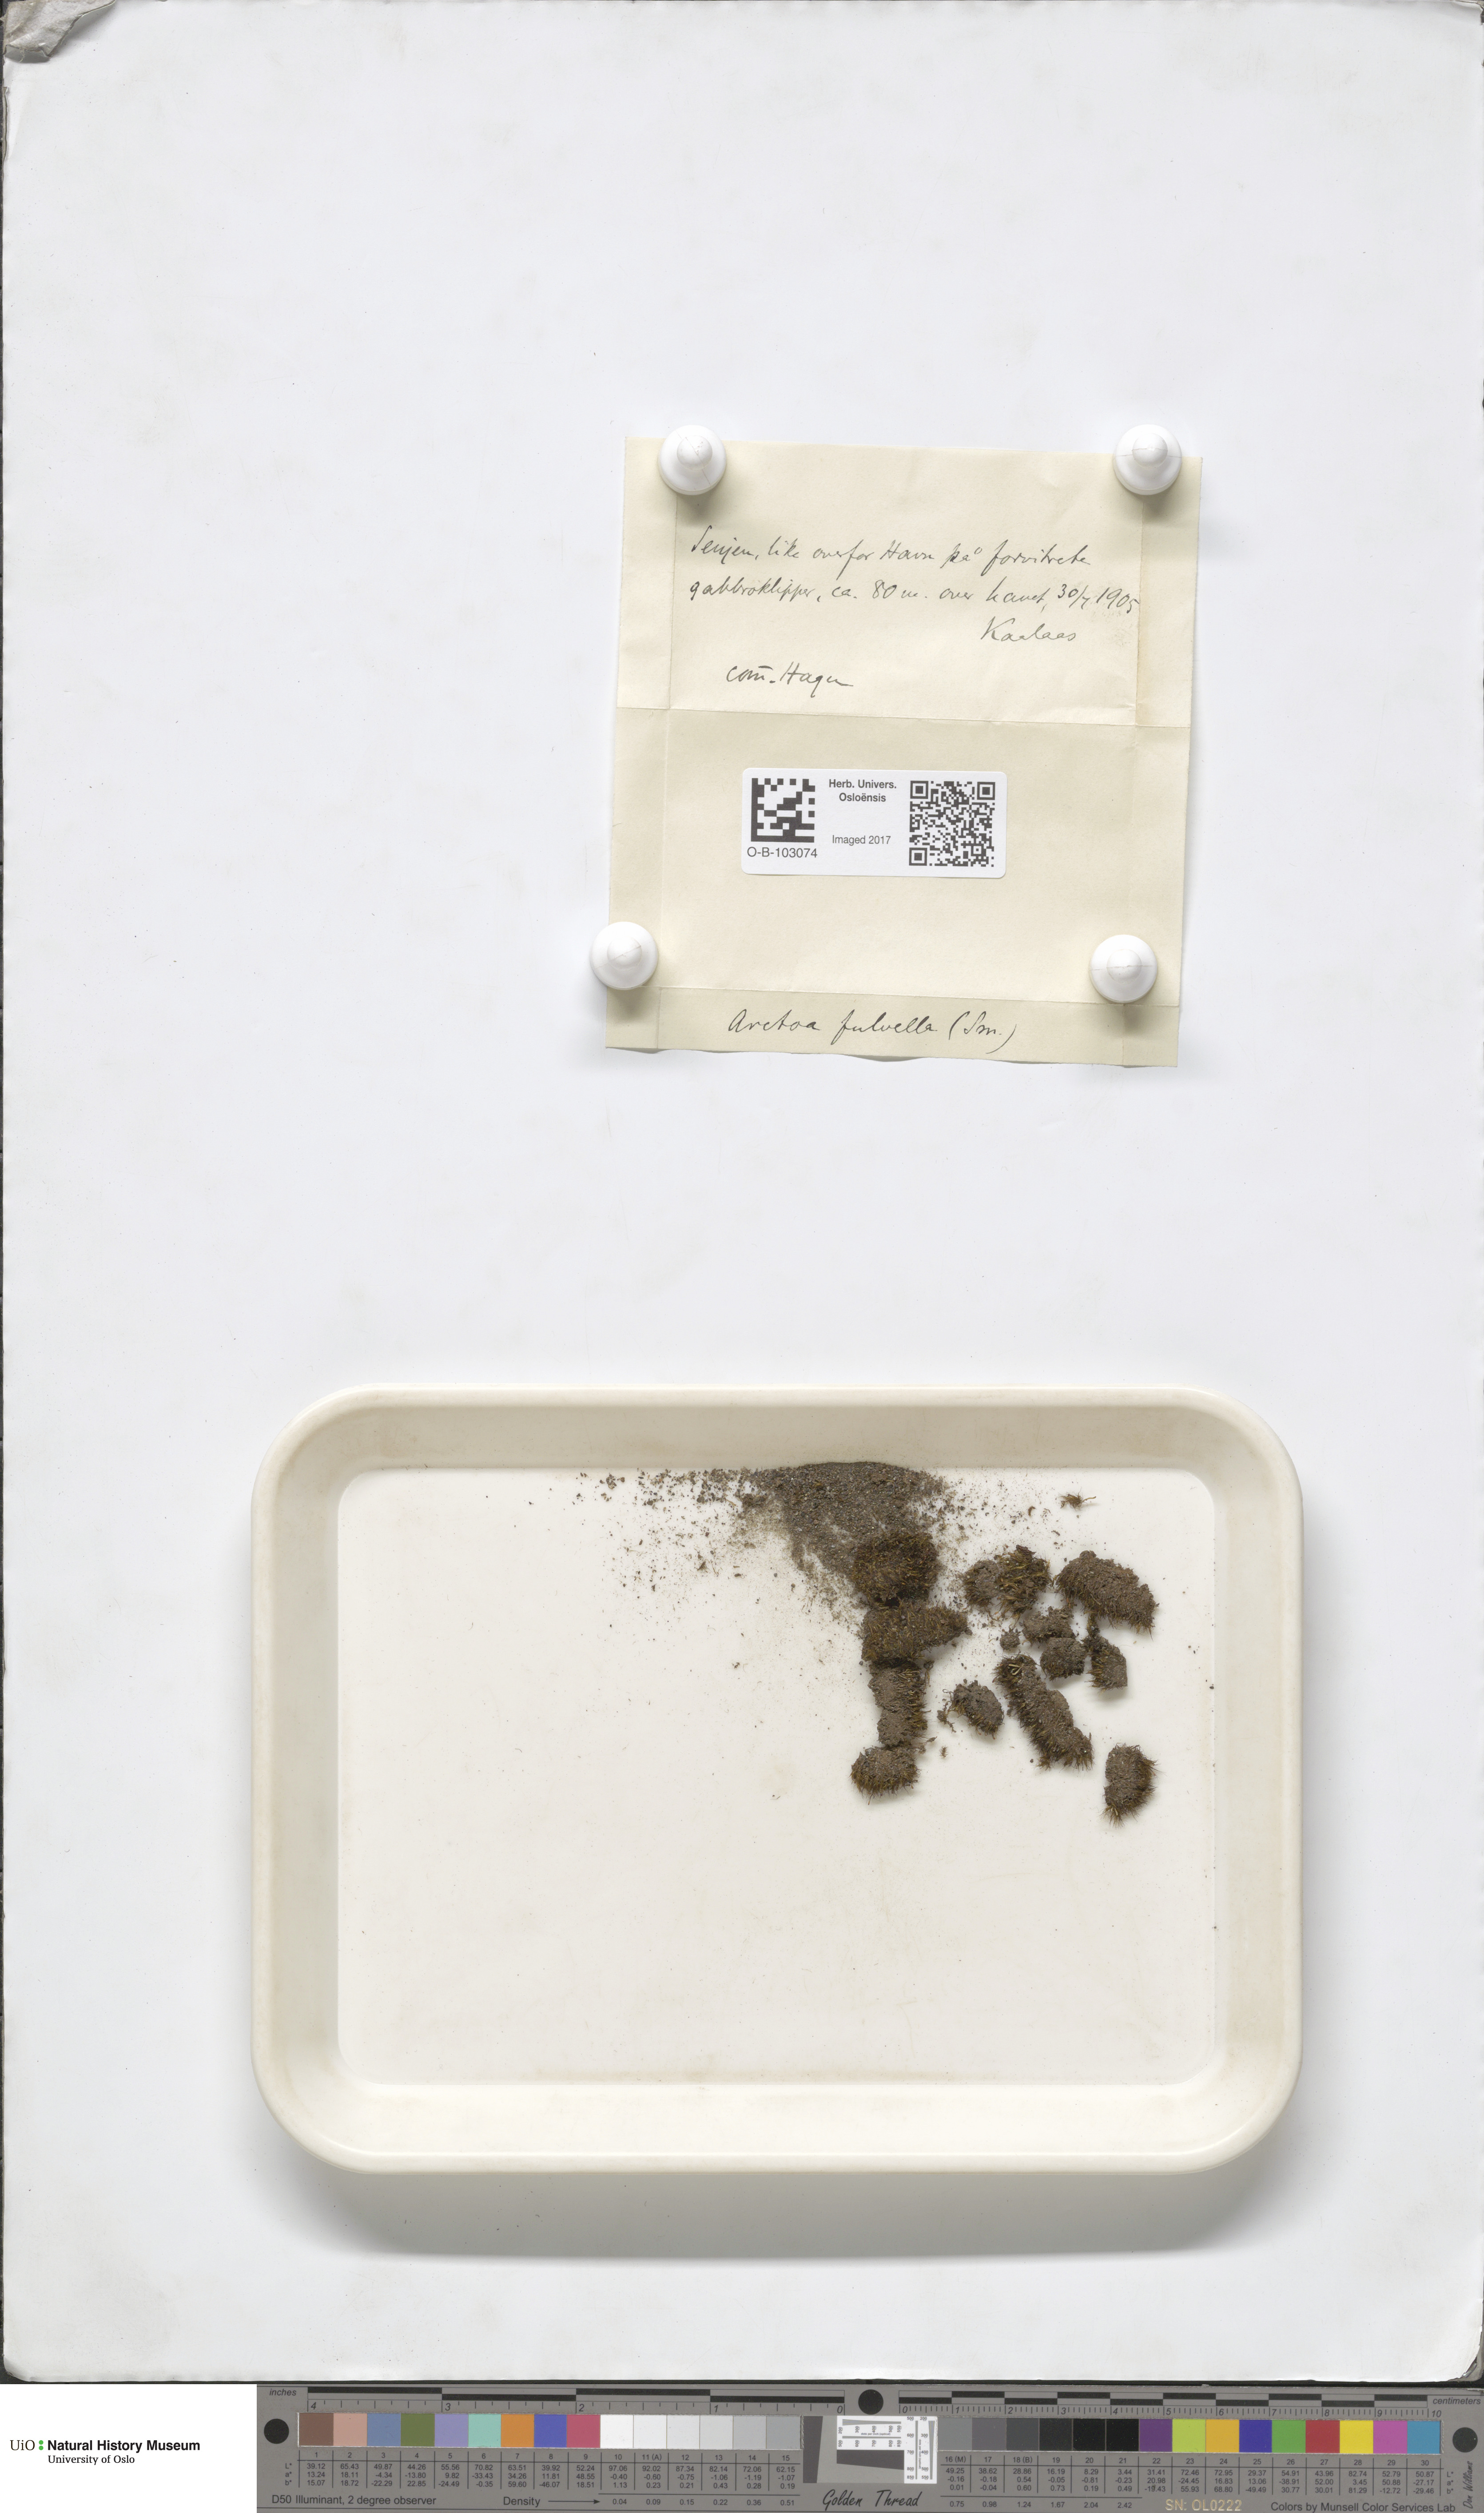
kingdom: Plantae
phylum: Bryophyta
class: Bryopsida
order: Dicranales
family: Rhabdoweisiaceae
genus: Arctoa
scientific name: Arctoa fulvella
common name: Tawny fork moss
